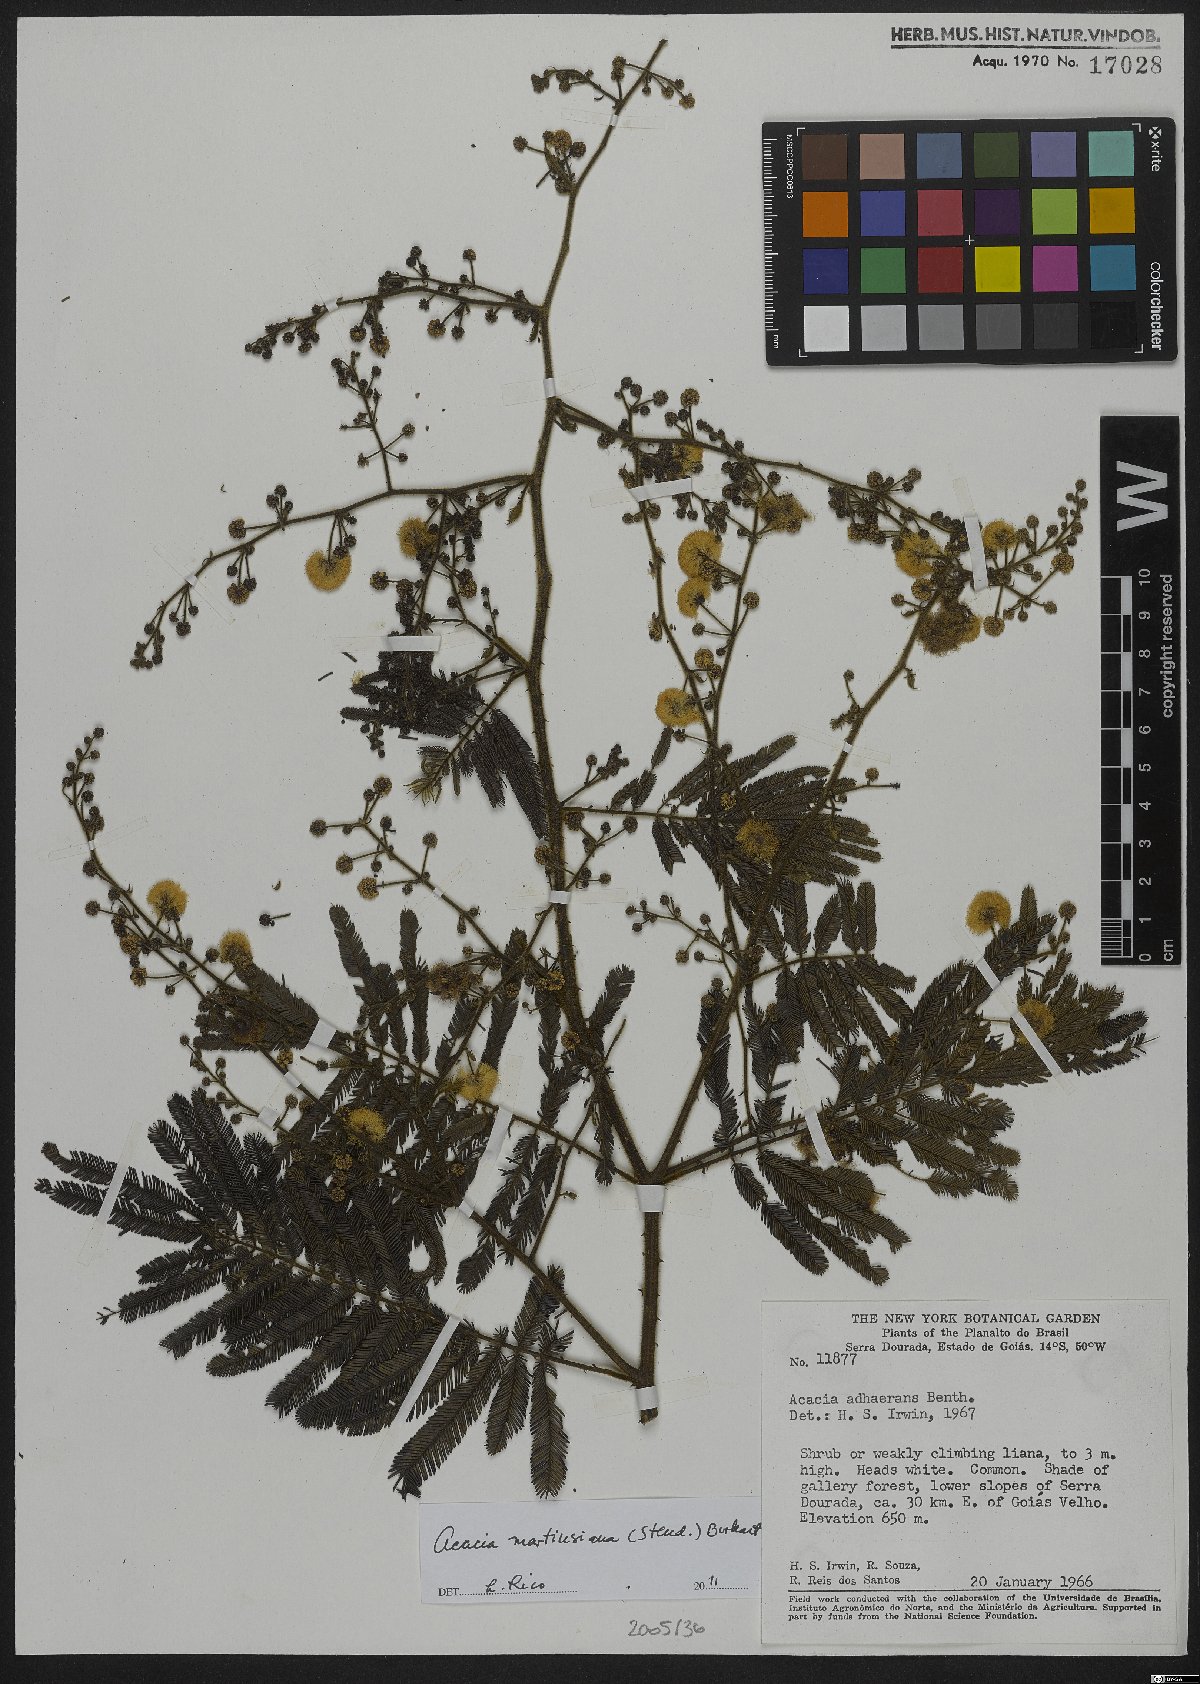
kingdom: Plantae
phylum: Tracheophyta
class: Magnoliopsida
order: Fabales
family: Fabaceae
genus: Senegalia
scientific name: Senegalia martiusiana
